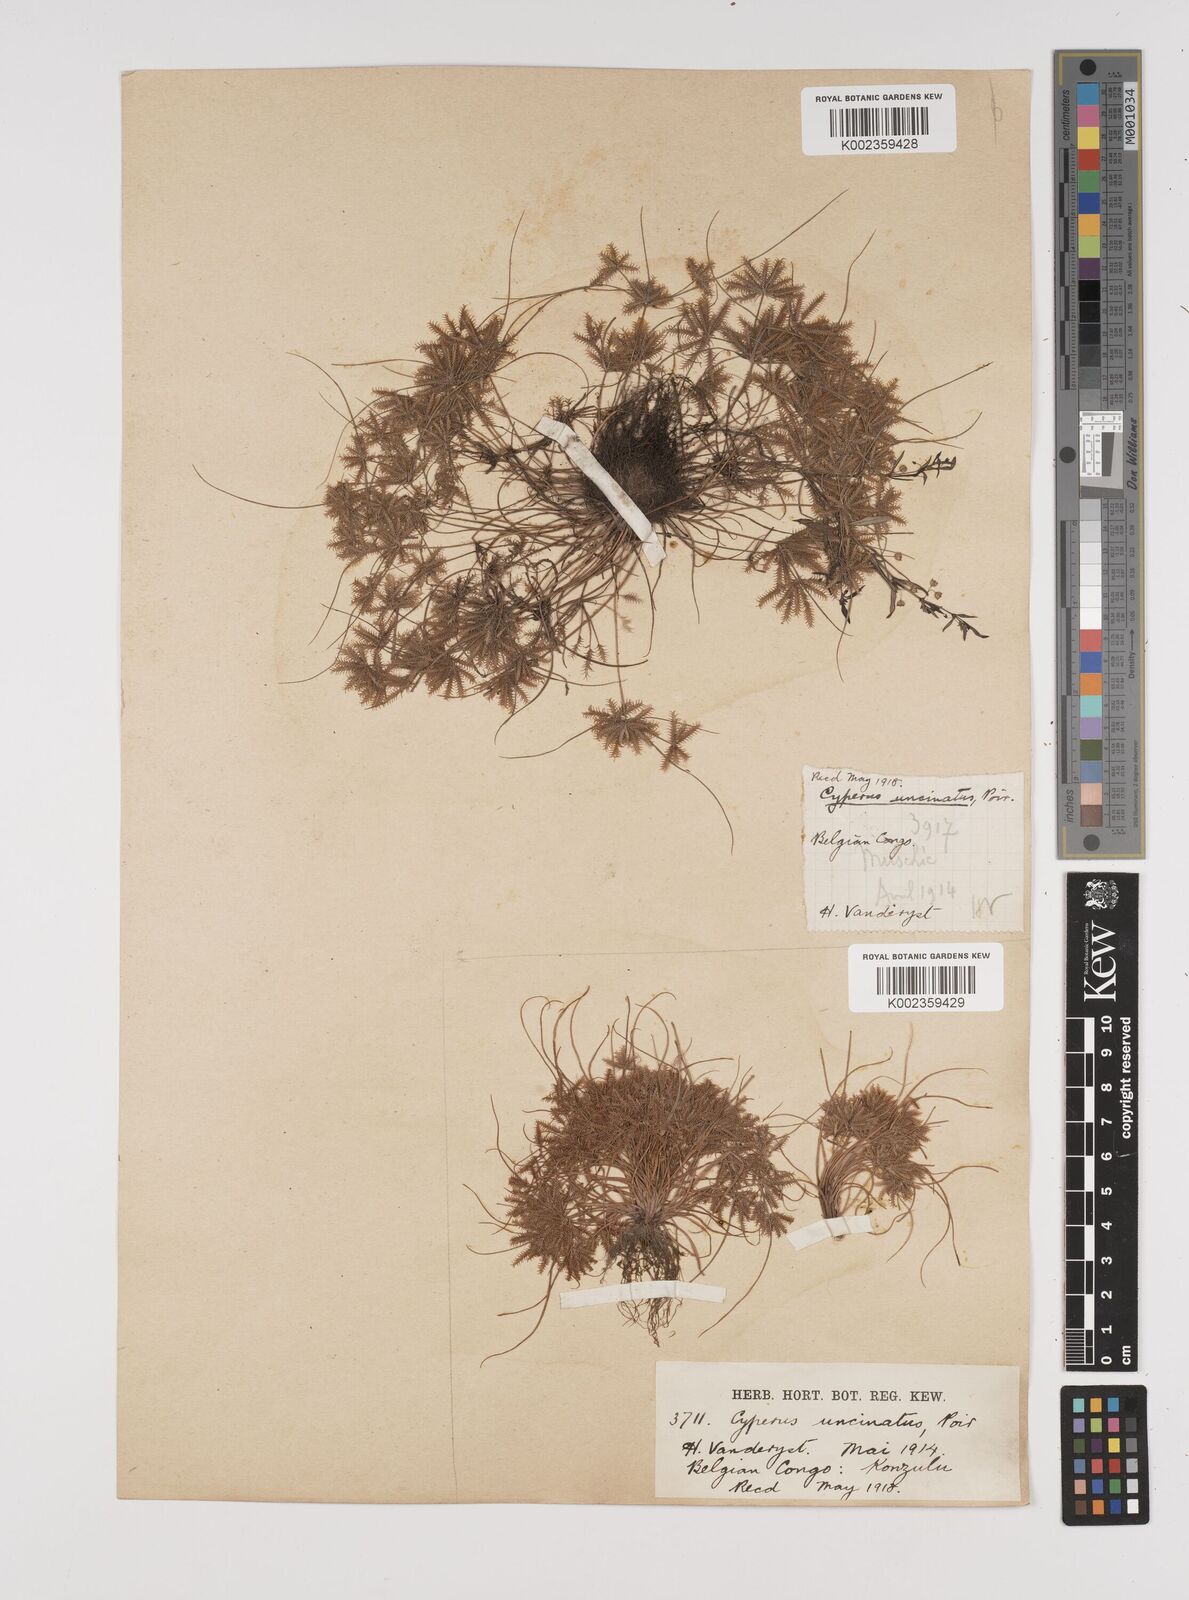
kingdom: Plantae
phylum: Tracheophyta
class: Liliopsida
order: Poales
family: Cyperaceae
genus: Cyperus
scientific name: Cyperus cuspidatus
